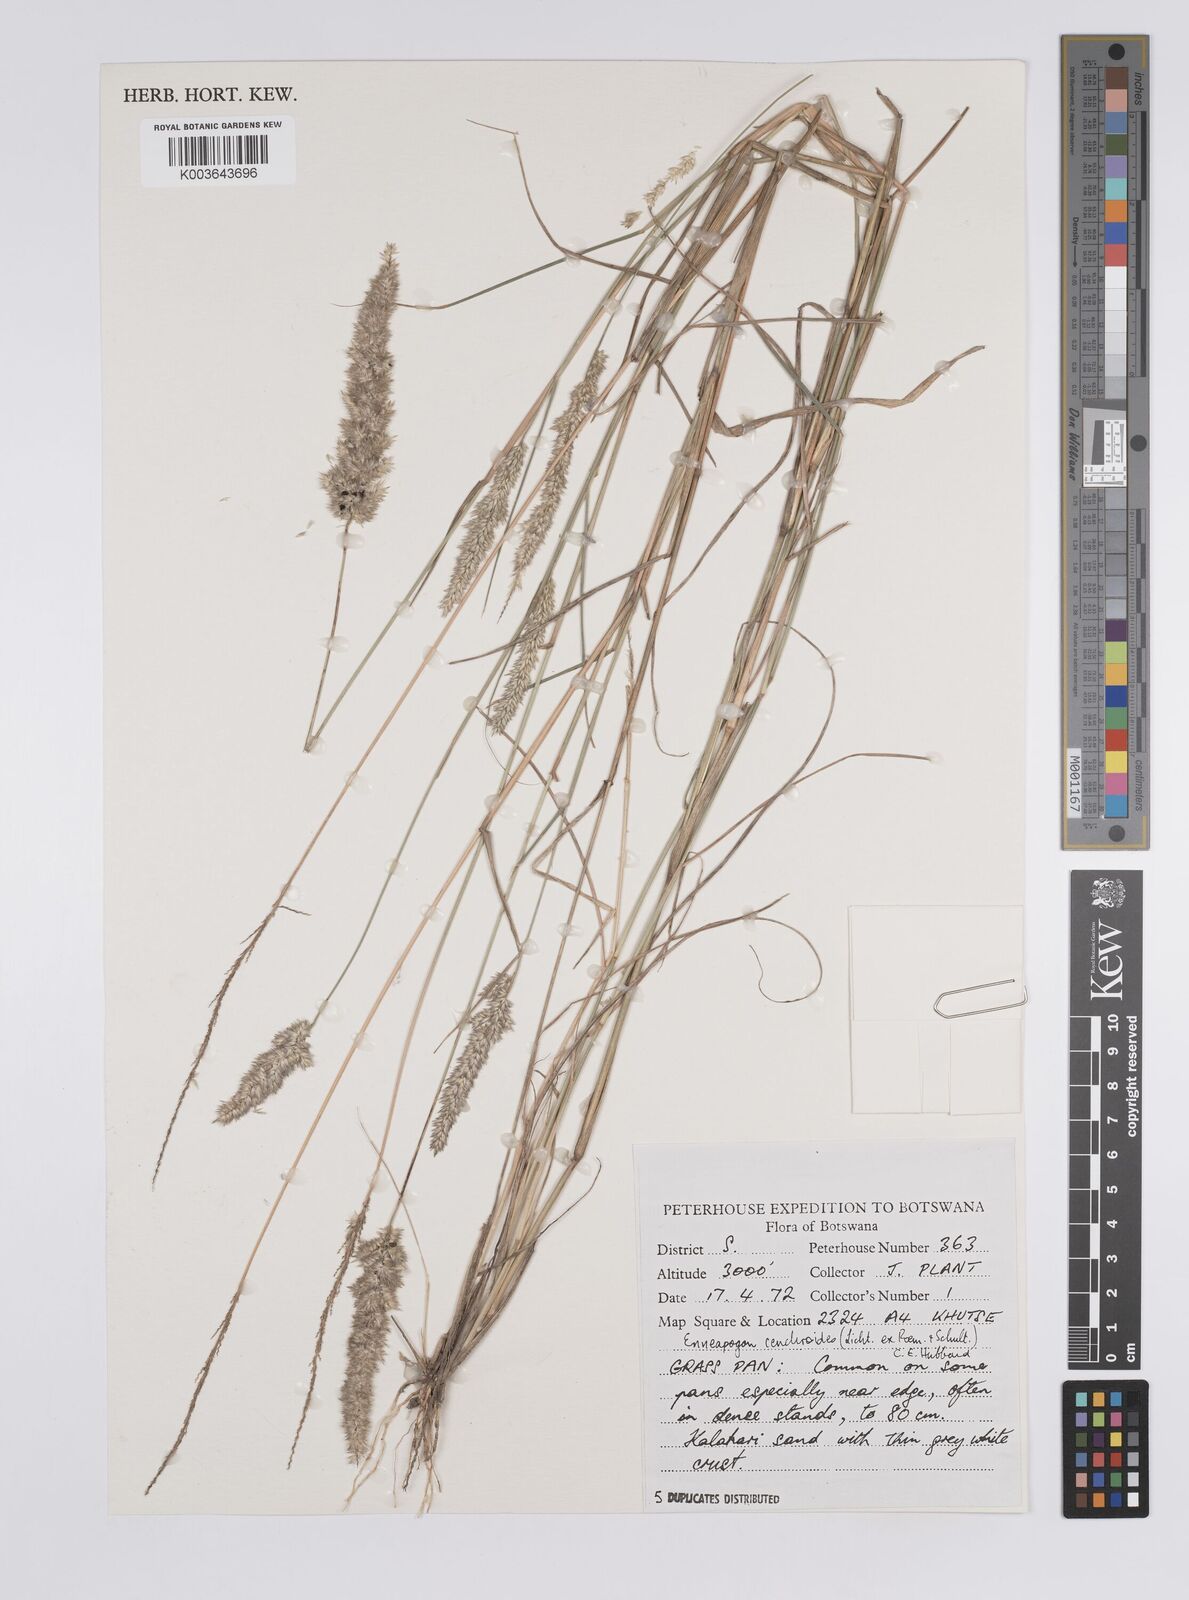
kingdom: Plantae
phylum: Tracheophyta
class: Liliopsida
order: Poales
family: Poaceae
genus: Enneapogon
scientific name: Enneapogon cenchroides
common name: Soft feather pappusgrass
